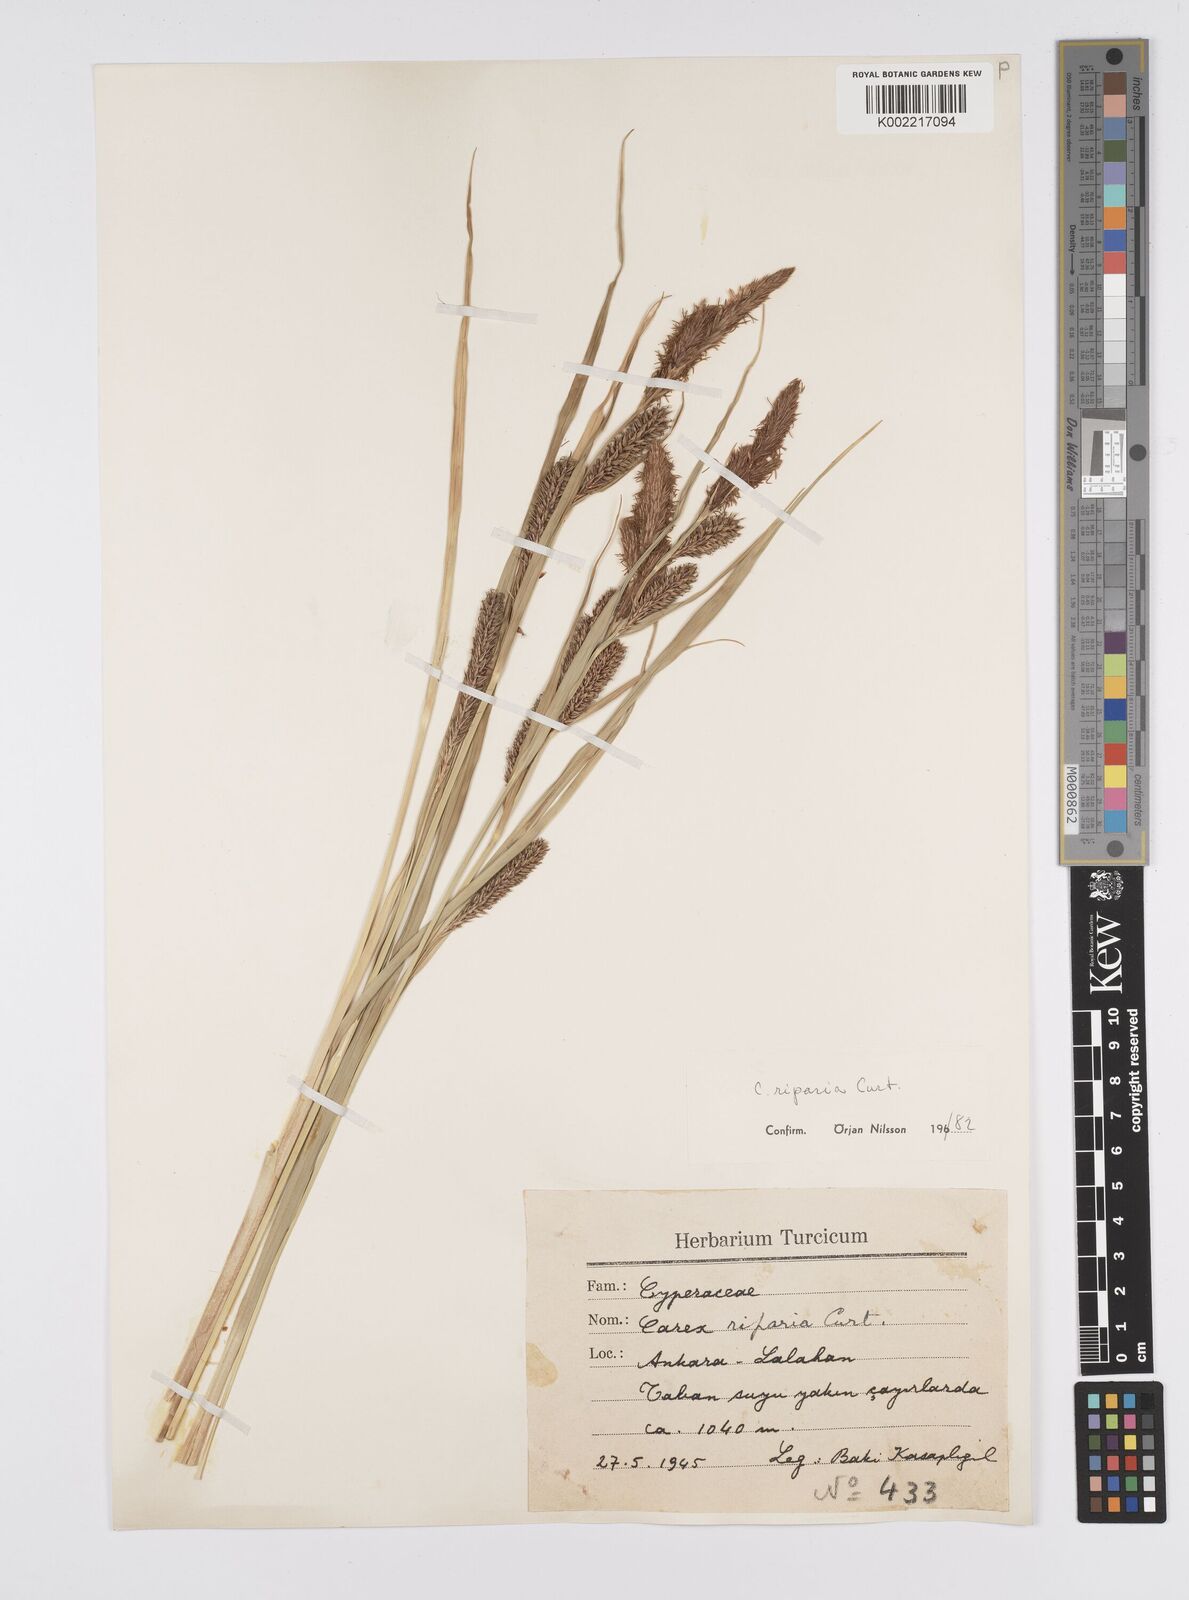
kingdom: Plantae
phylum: Tracheophyta
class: Liliopsida
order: Poales
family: Cyperaceae
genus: Carex
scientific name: Carex riparia
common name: Greater pond-sedge
